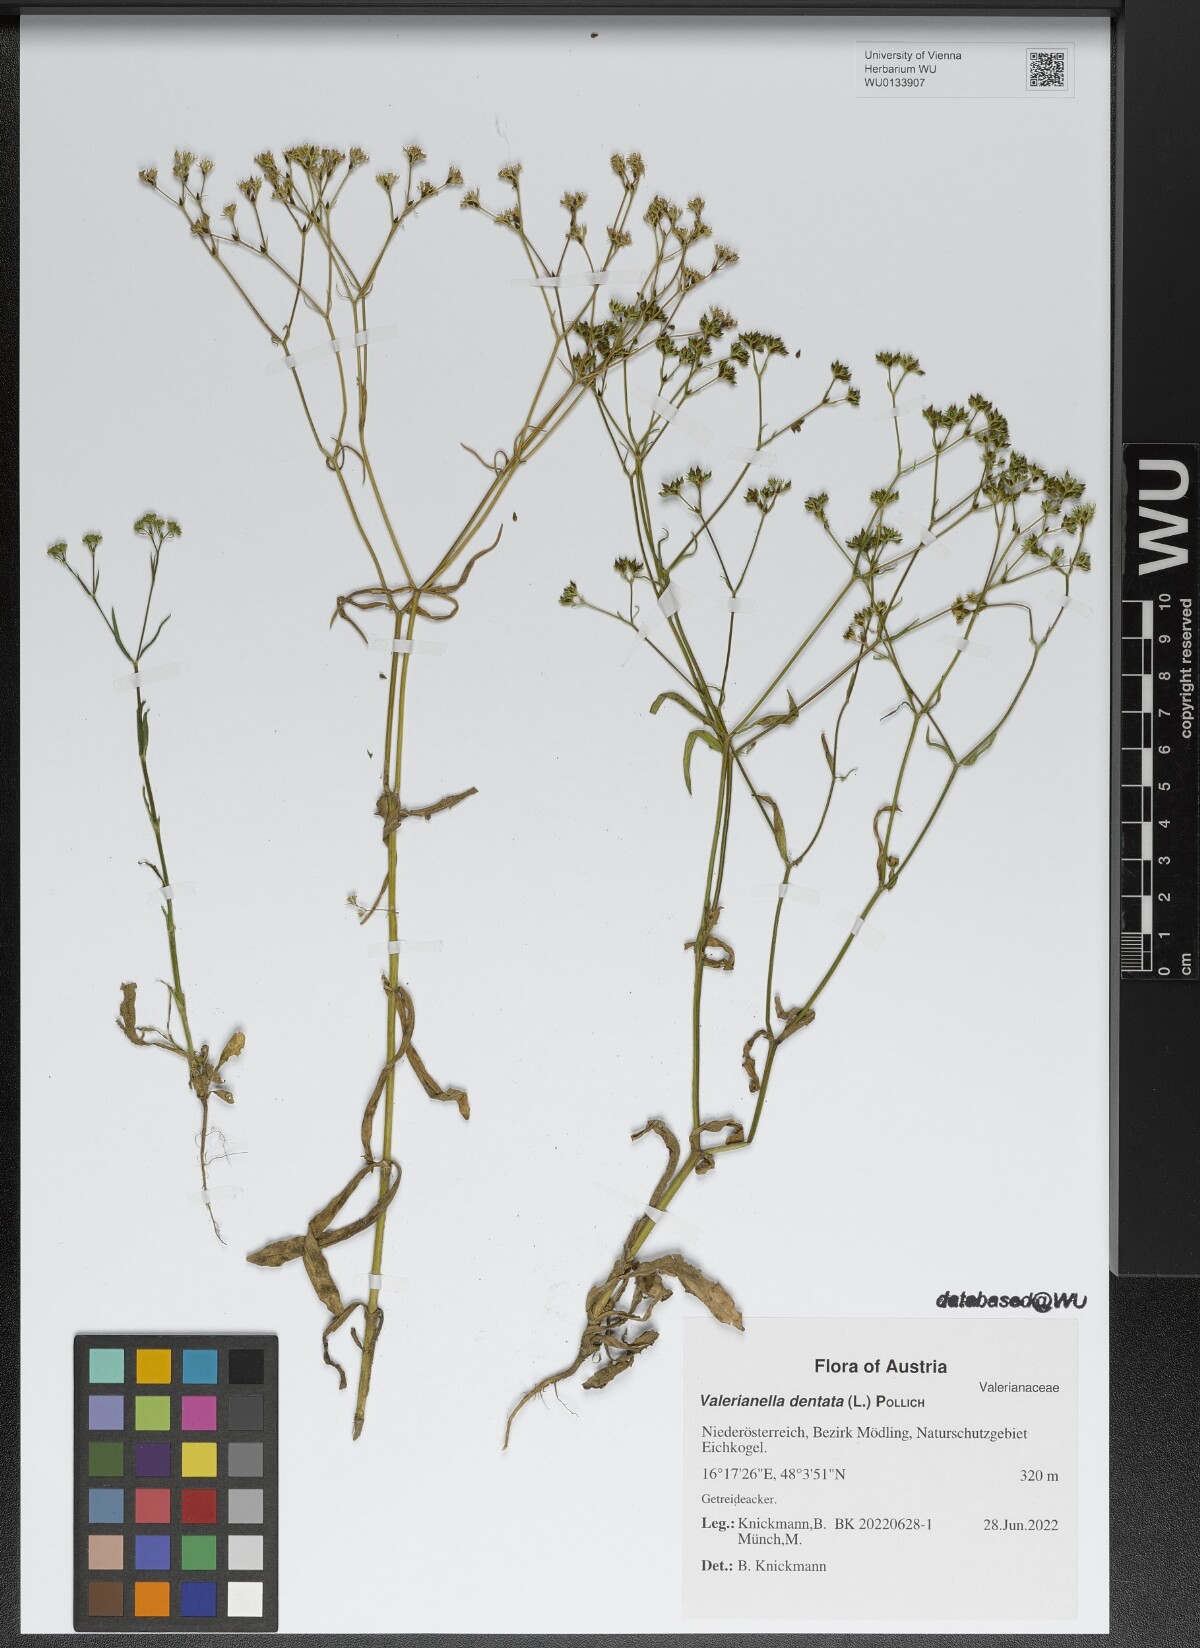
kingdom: Plantae
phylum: Tracheophyta
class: Magnoliopsida
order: Dipsacales
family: Caprifoliaceae
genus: Valerianella
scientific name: Valerianella dentata
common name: Narrow-fruited cornsalad
